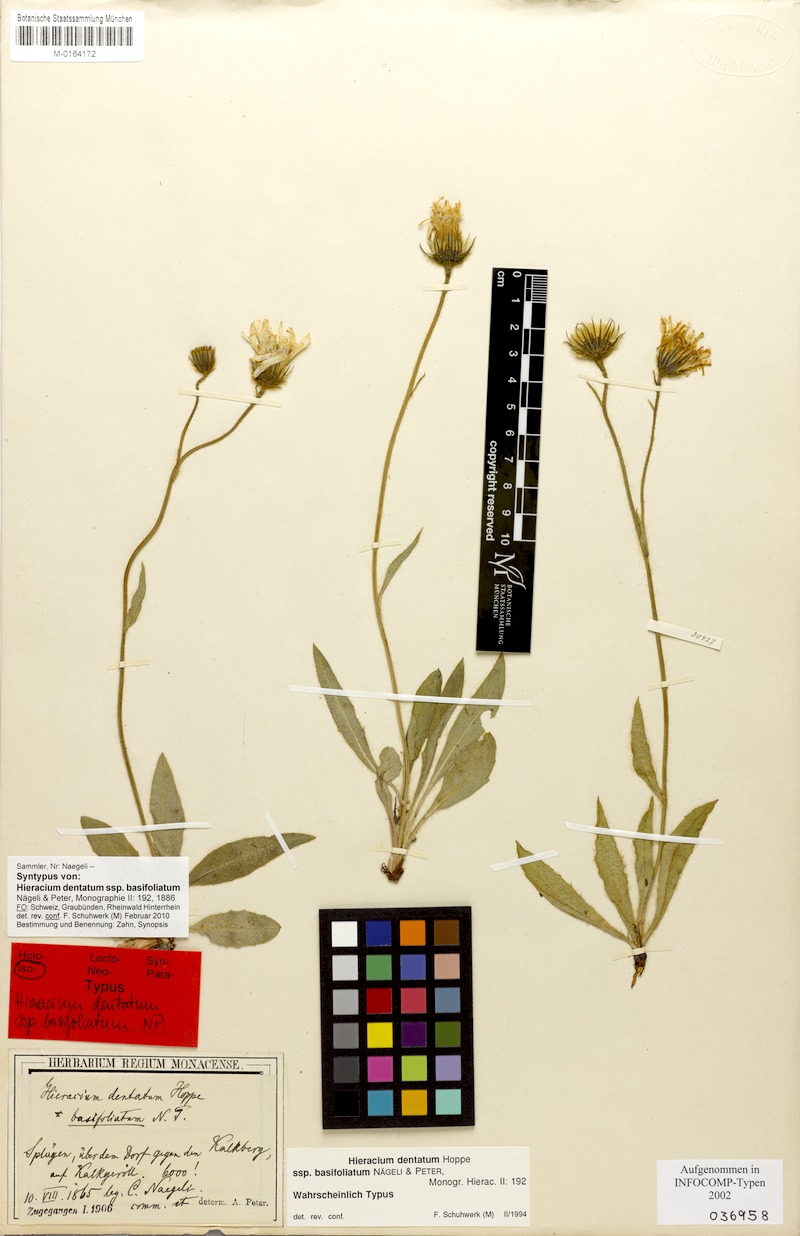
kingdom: Plantae
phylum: Tracheophyta
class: Magnoliopsida
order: Asterales
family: Asteraceae
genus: Hieracium
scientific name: Hieracium dentatum
